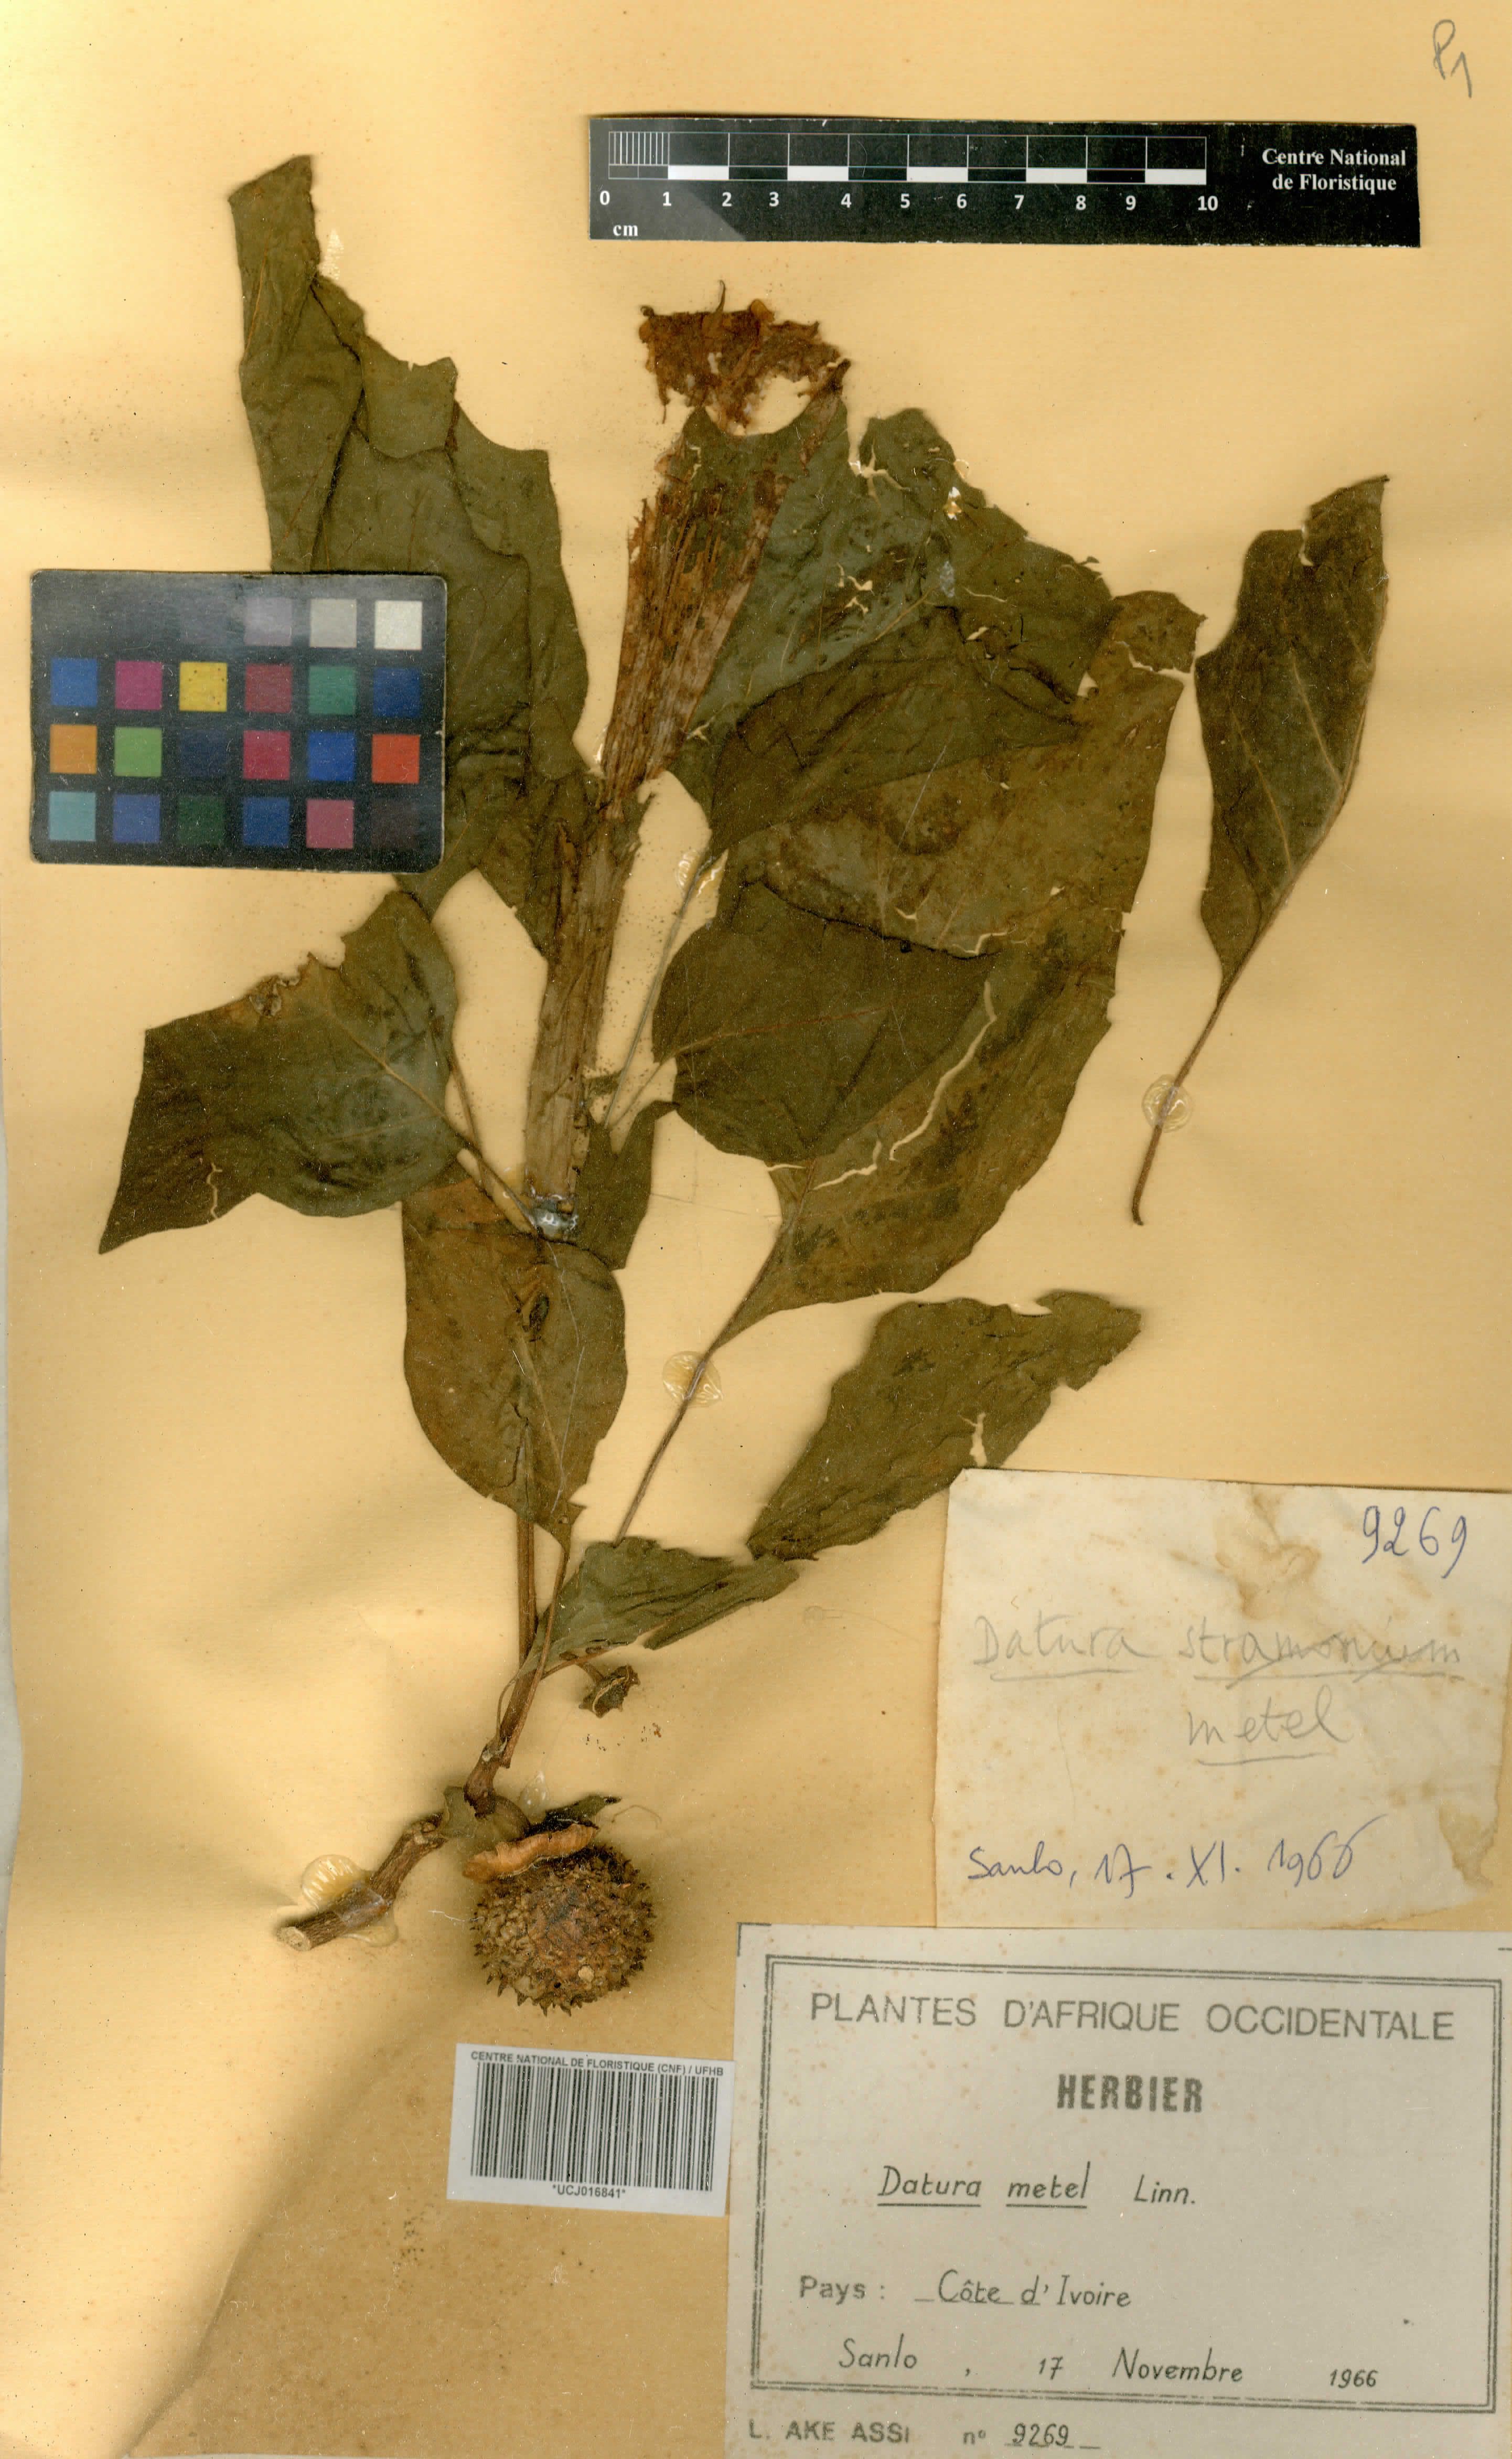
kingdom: Plantae
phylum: Tracheophyta
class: Magnoliopsida
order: Solanales
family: Solanaceae
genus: Datura
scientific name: Datura metel
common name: Jimsonweed
